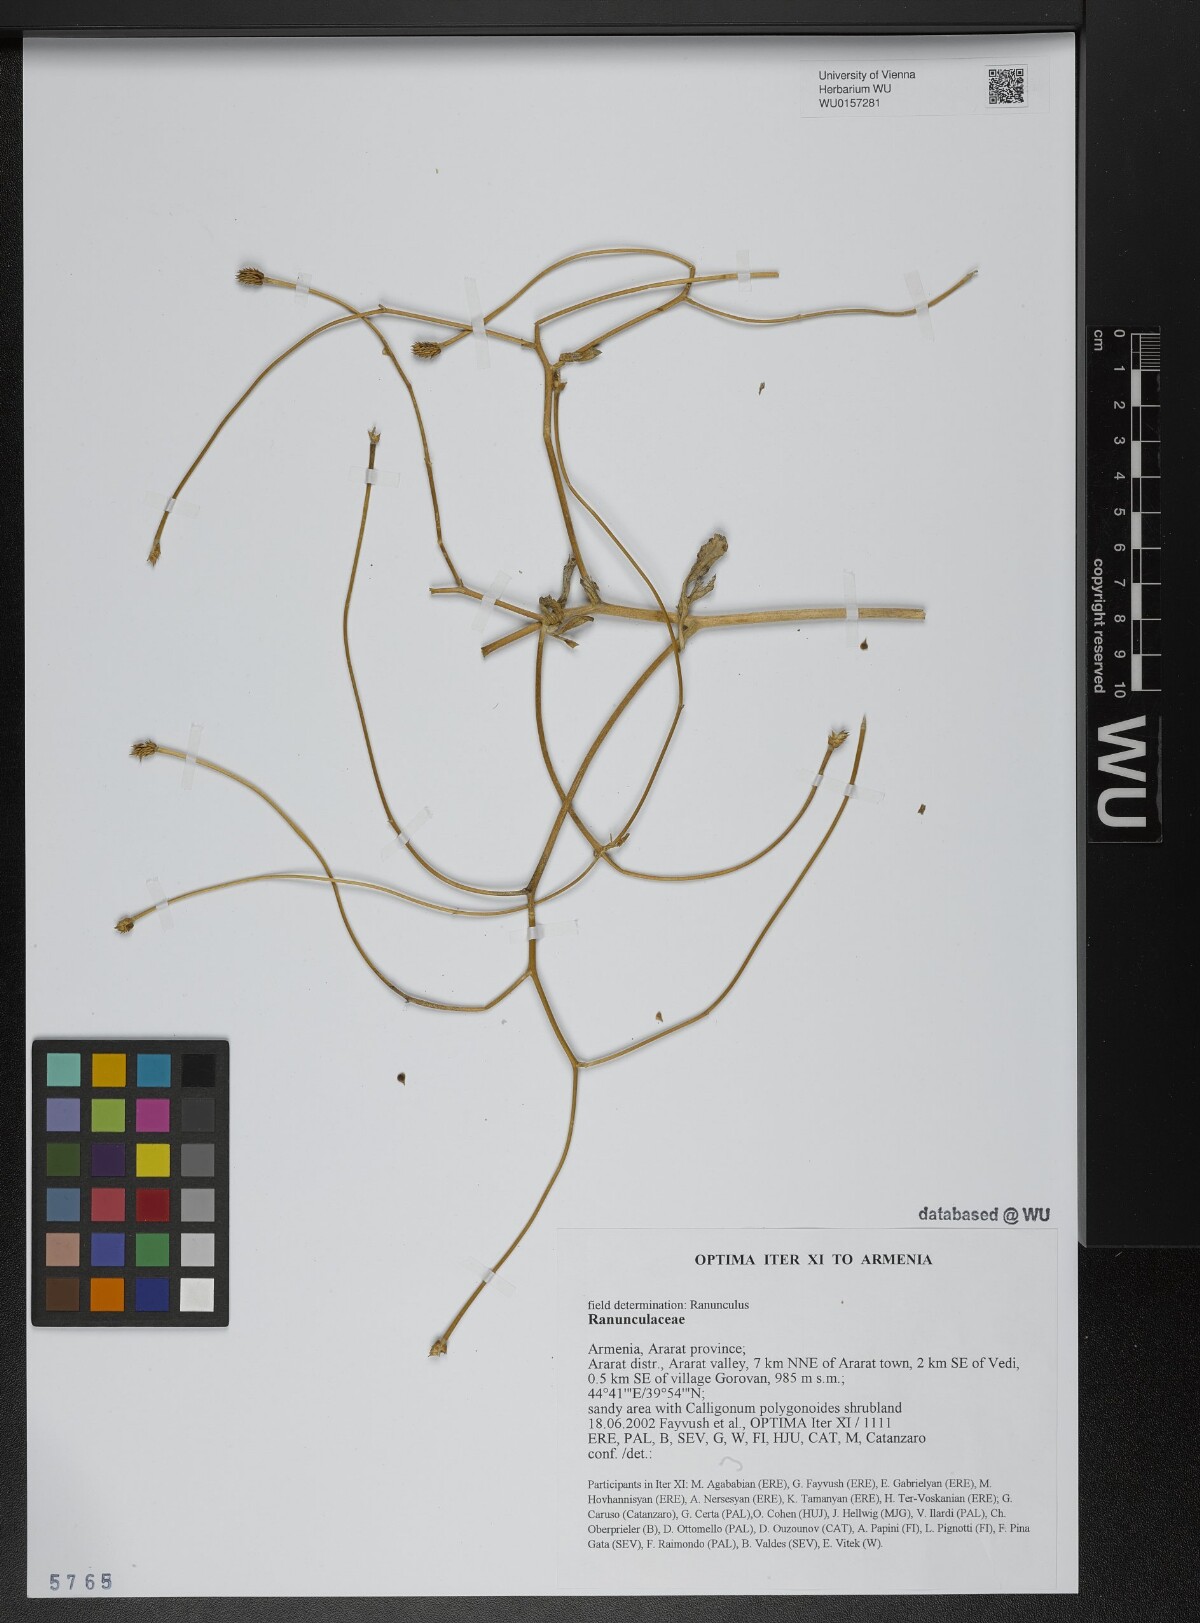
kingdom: Plantae
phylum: Tracheophyta
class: Magnoliopsida
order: Ranunculales
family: Ranunculaceae
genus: Ranunculus
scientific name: Ranunculus
